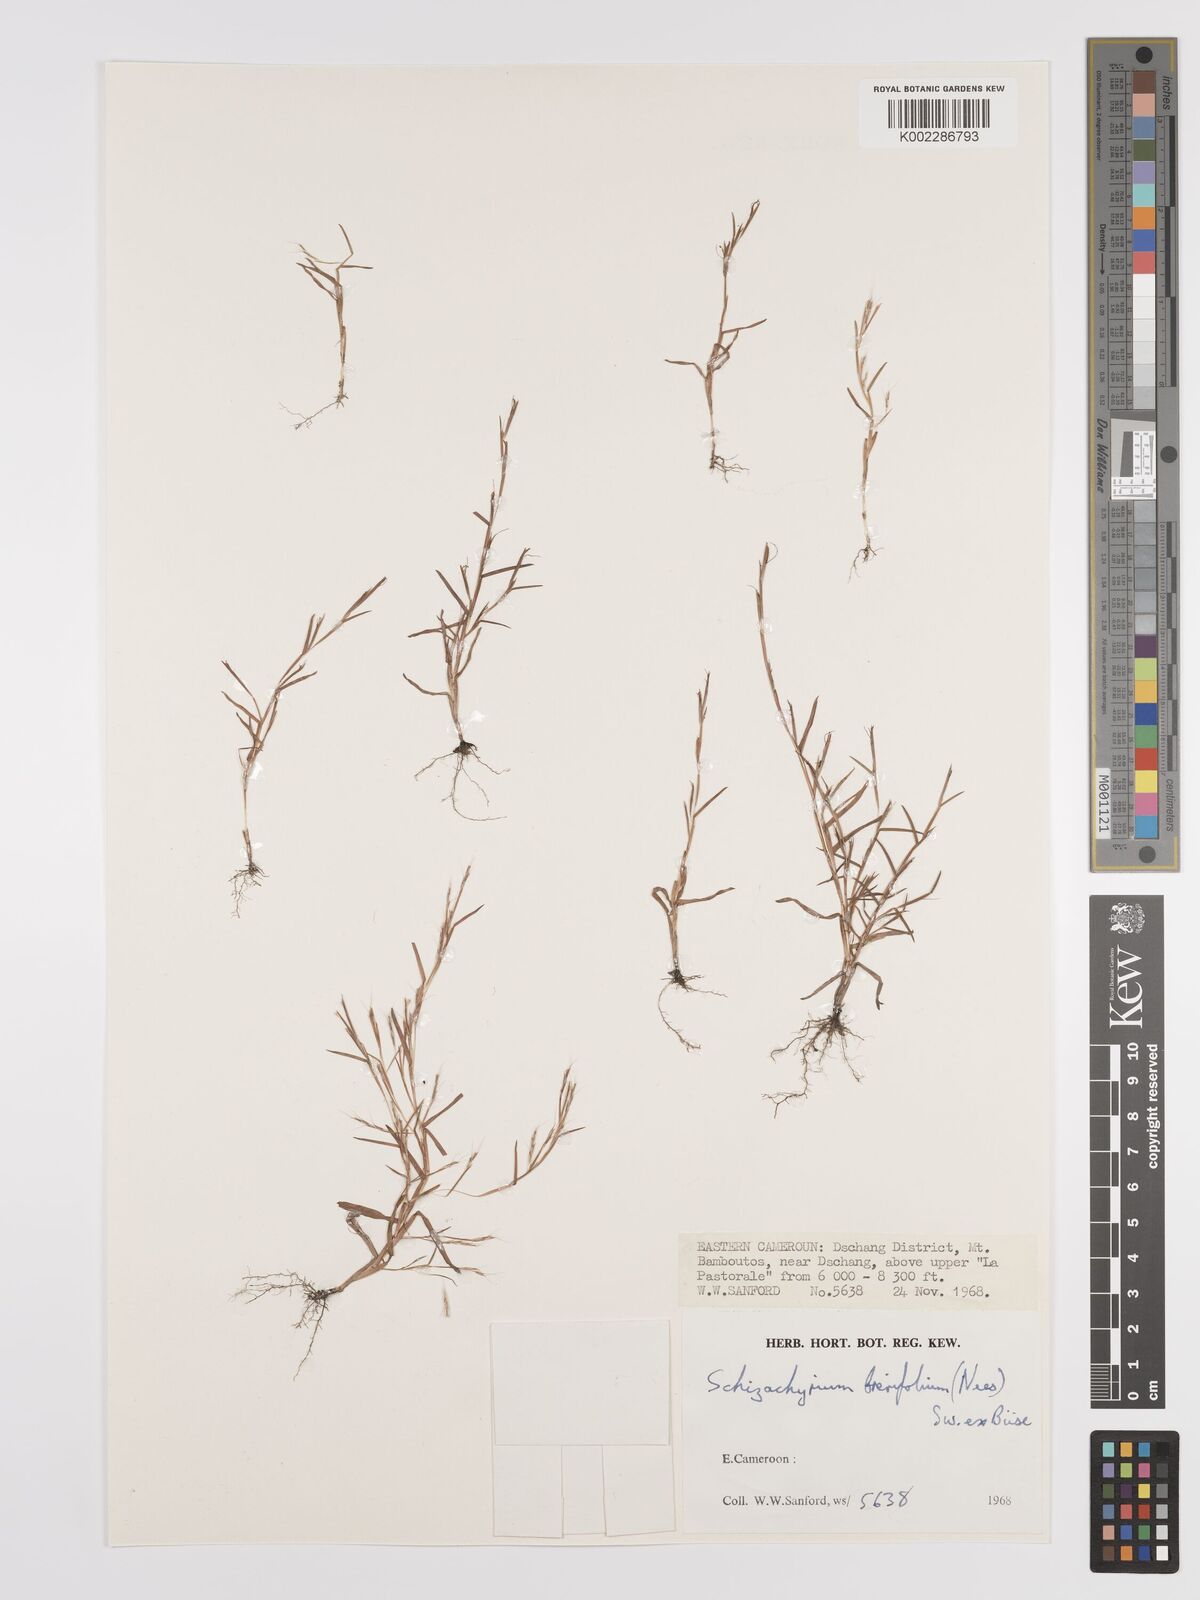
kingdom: Plantae
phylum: Tracheophyta
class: Liliopsida
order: Poales
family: Poaceae
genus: Schizachyrium
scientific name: Schizachyrium brevifolium
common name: Serillo dulce
